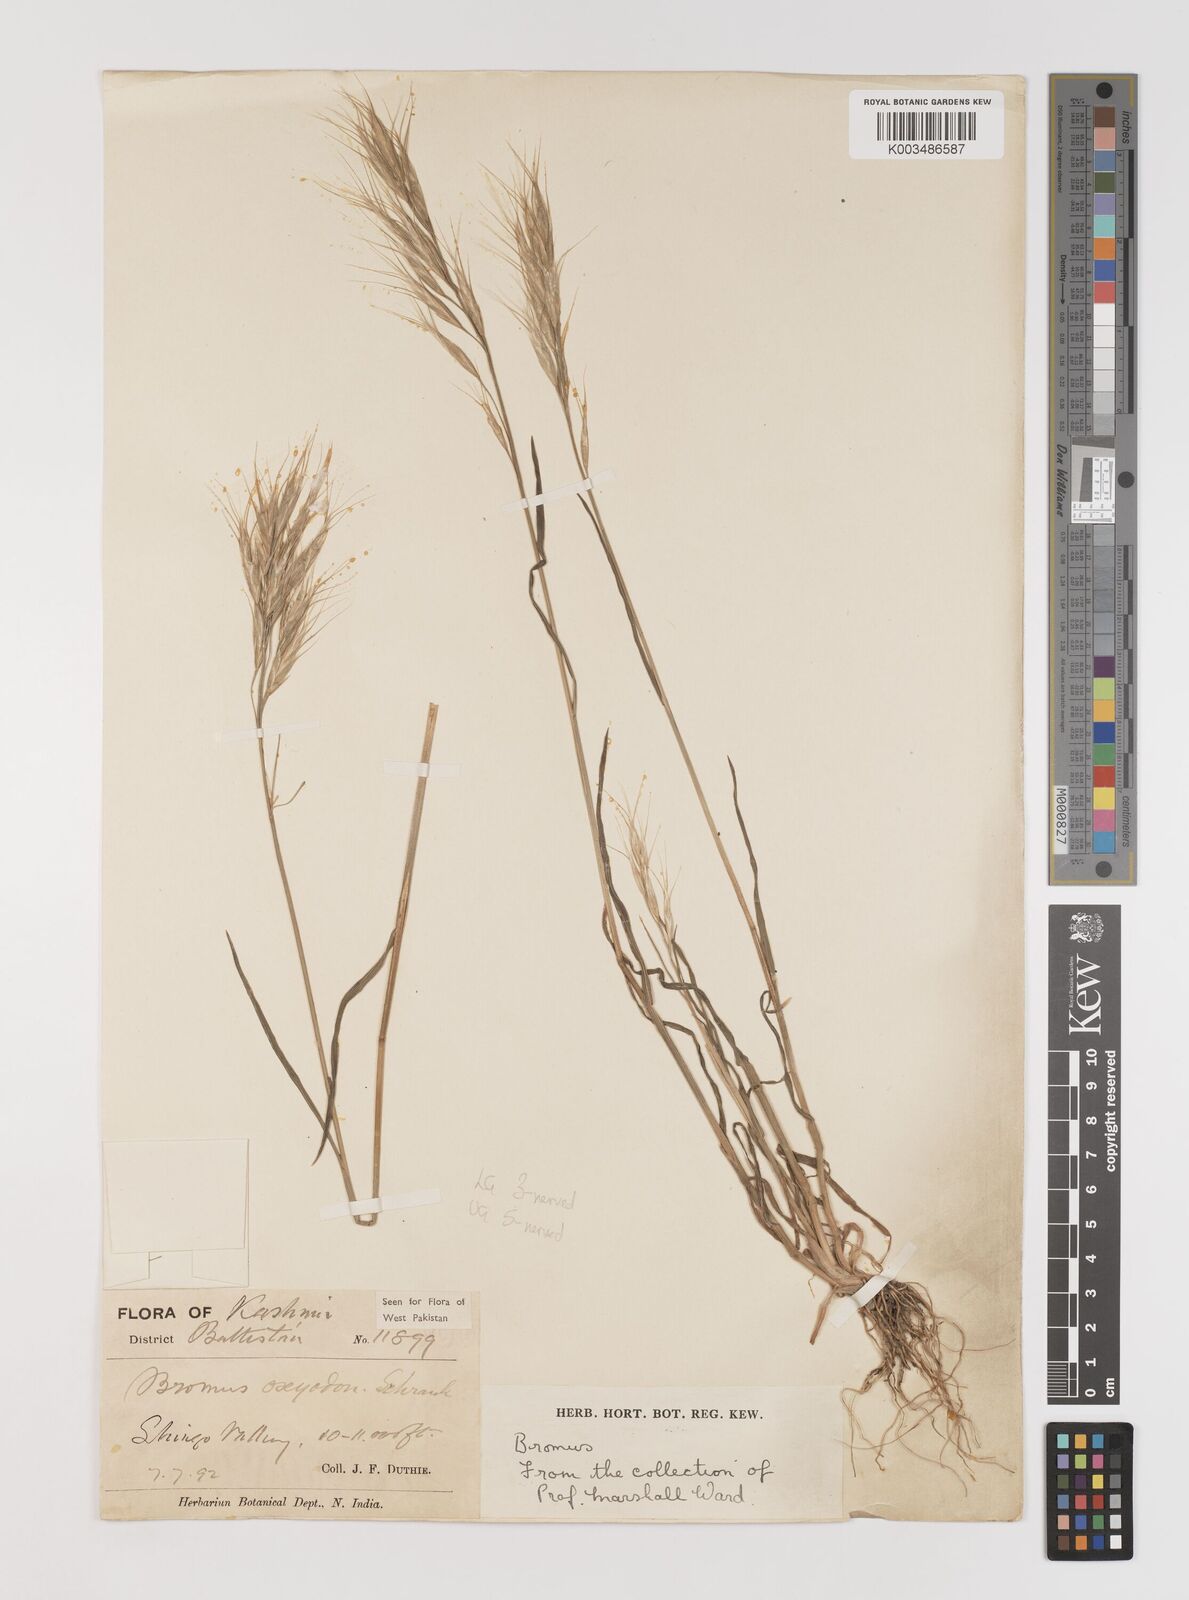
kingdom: Plantae
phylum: Tracheophyta
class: Liliopsida
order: Poales
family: Poaceae
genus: Bromus
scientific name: Bromus oxyodon
